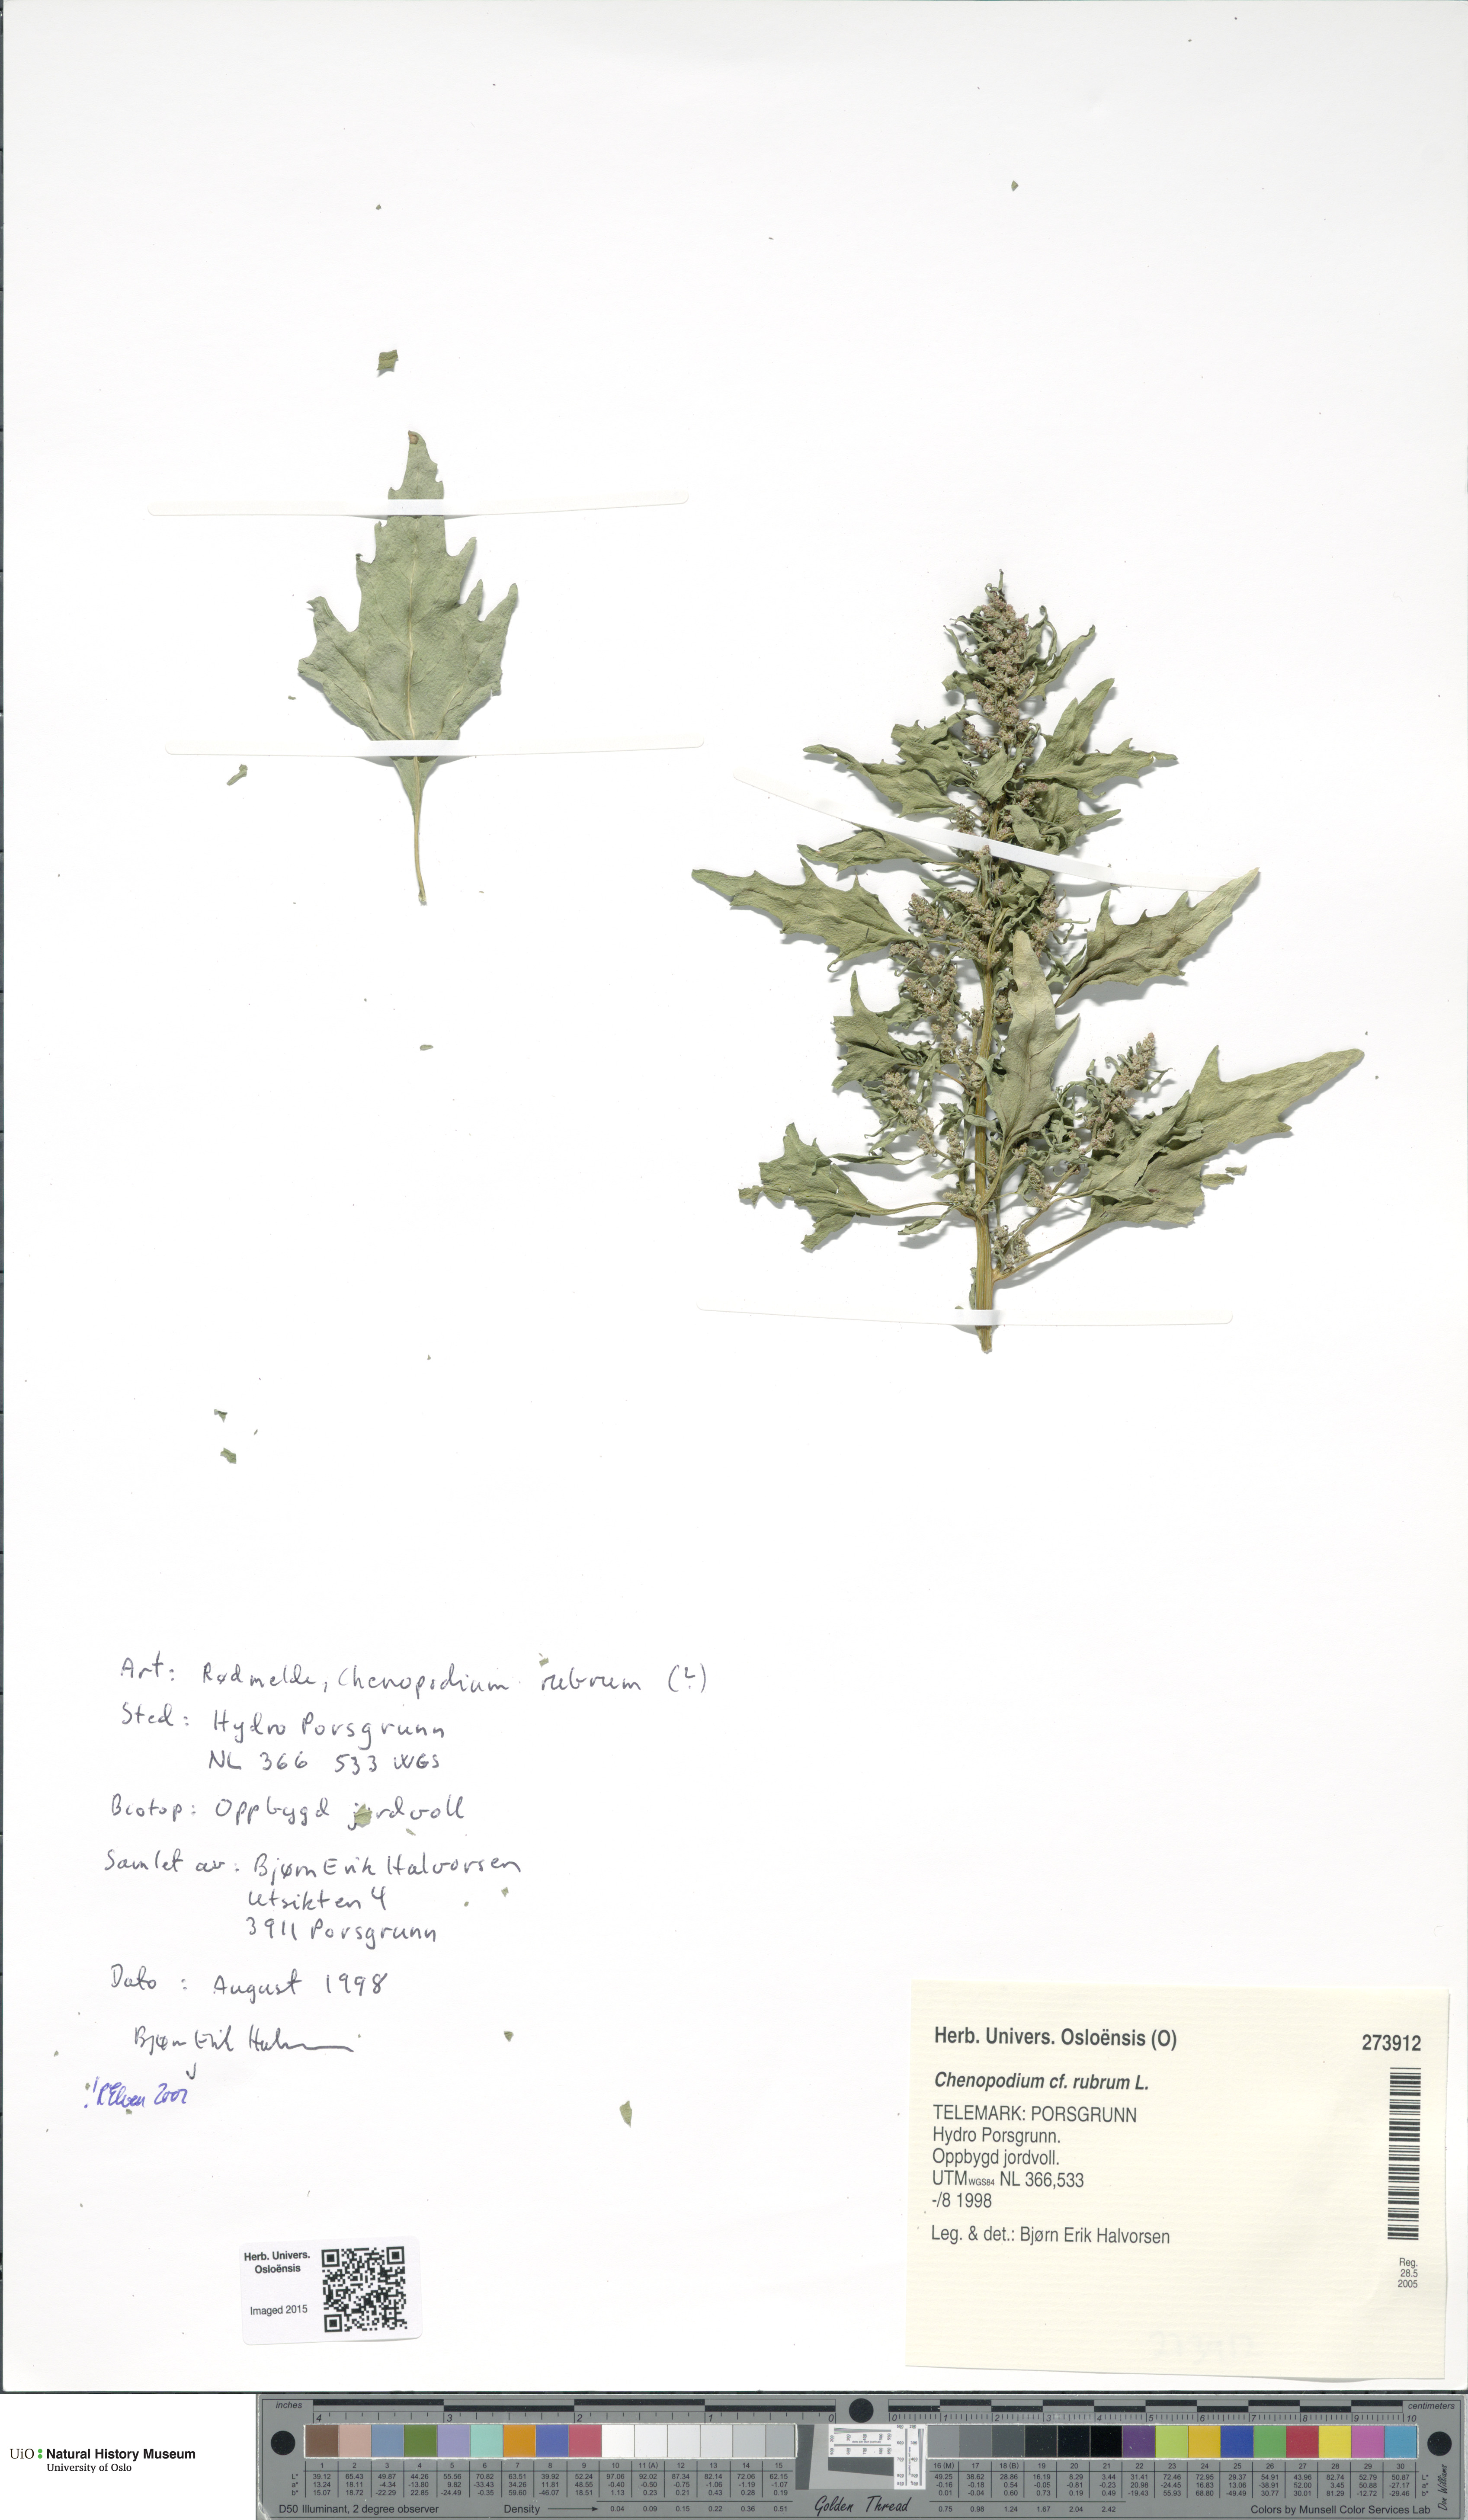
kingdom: Plantae
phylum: Tracheophyta
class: Magnoliopsida
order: Caryophyllales
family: Amaranthaceae
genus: Oxybasis
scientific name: Oxybasis rubra
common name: Red goosefoot
